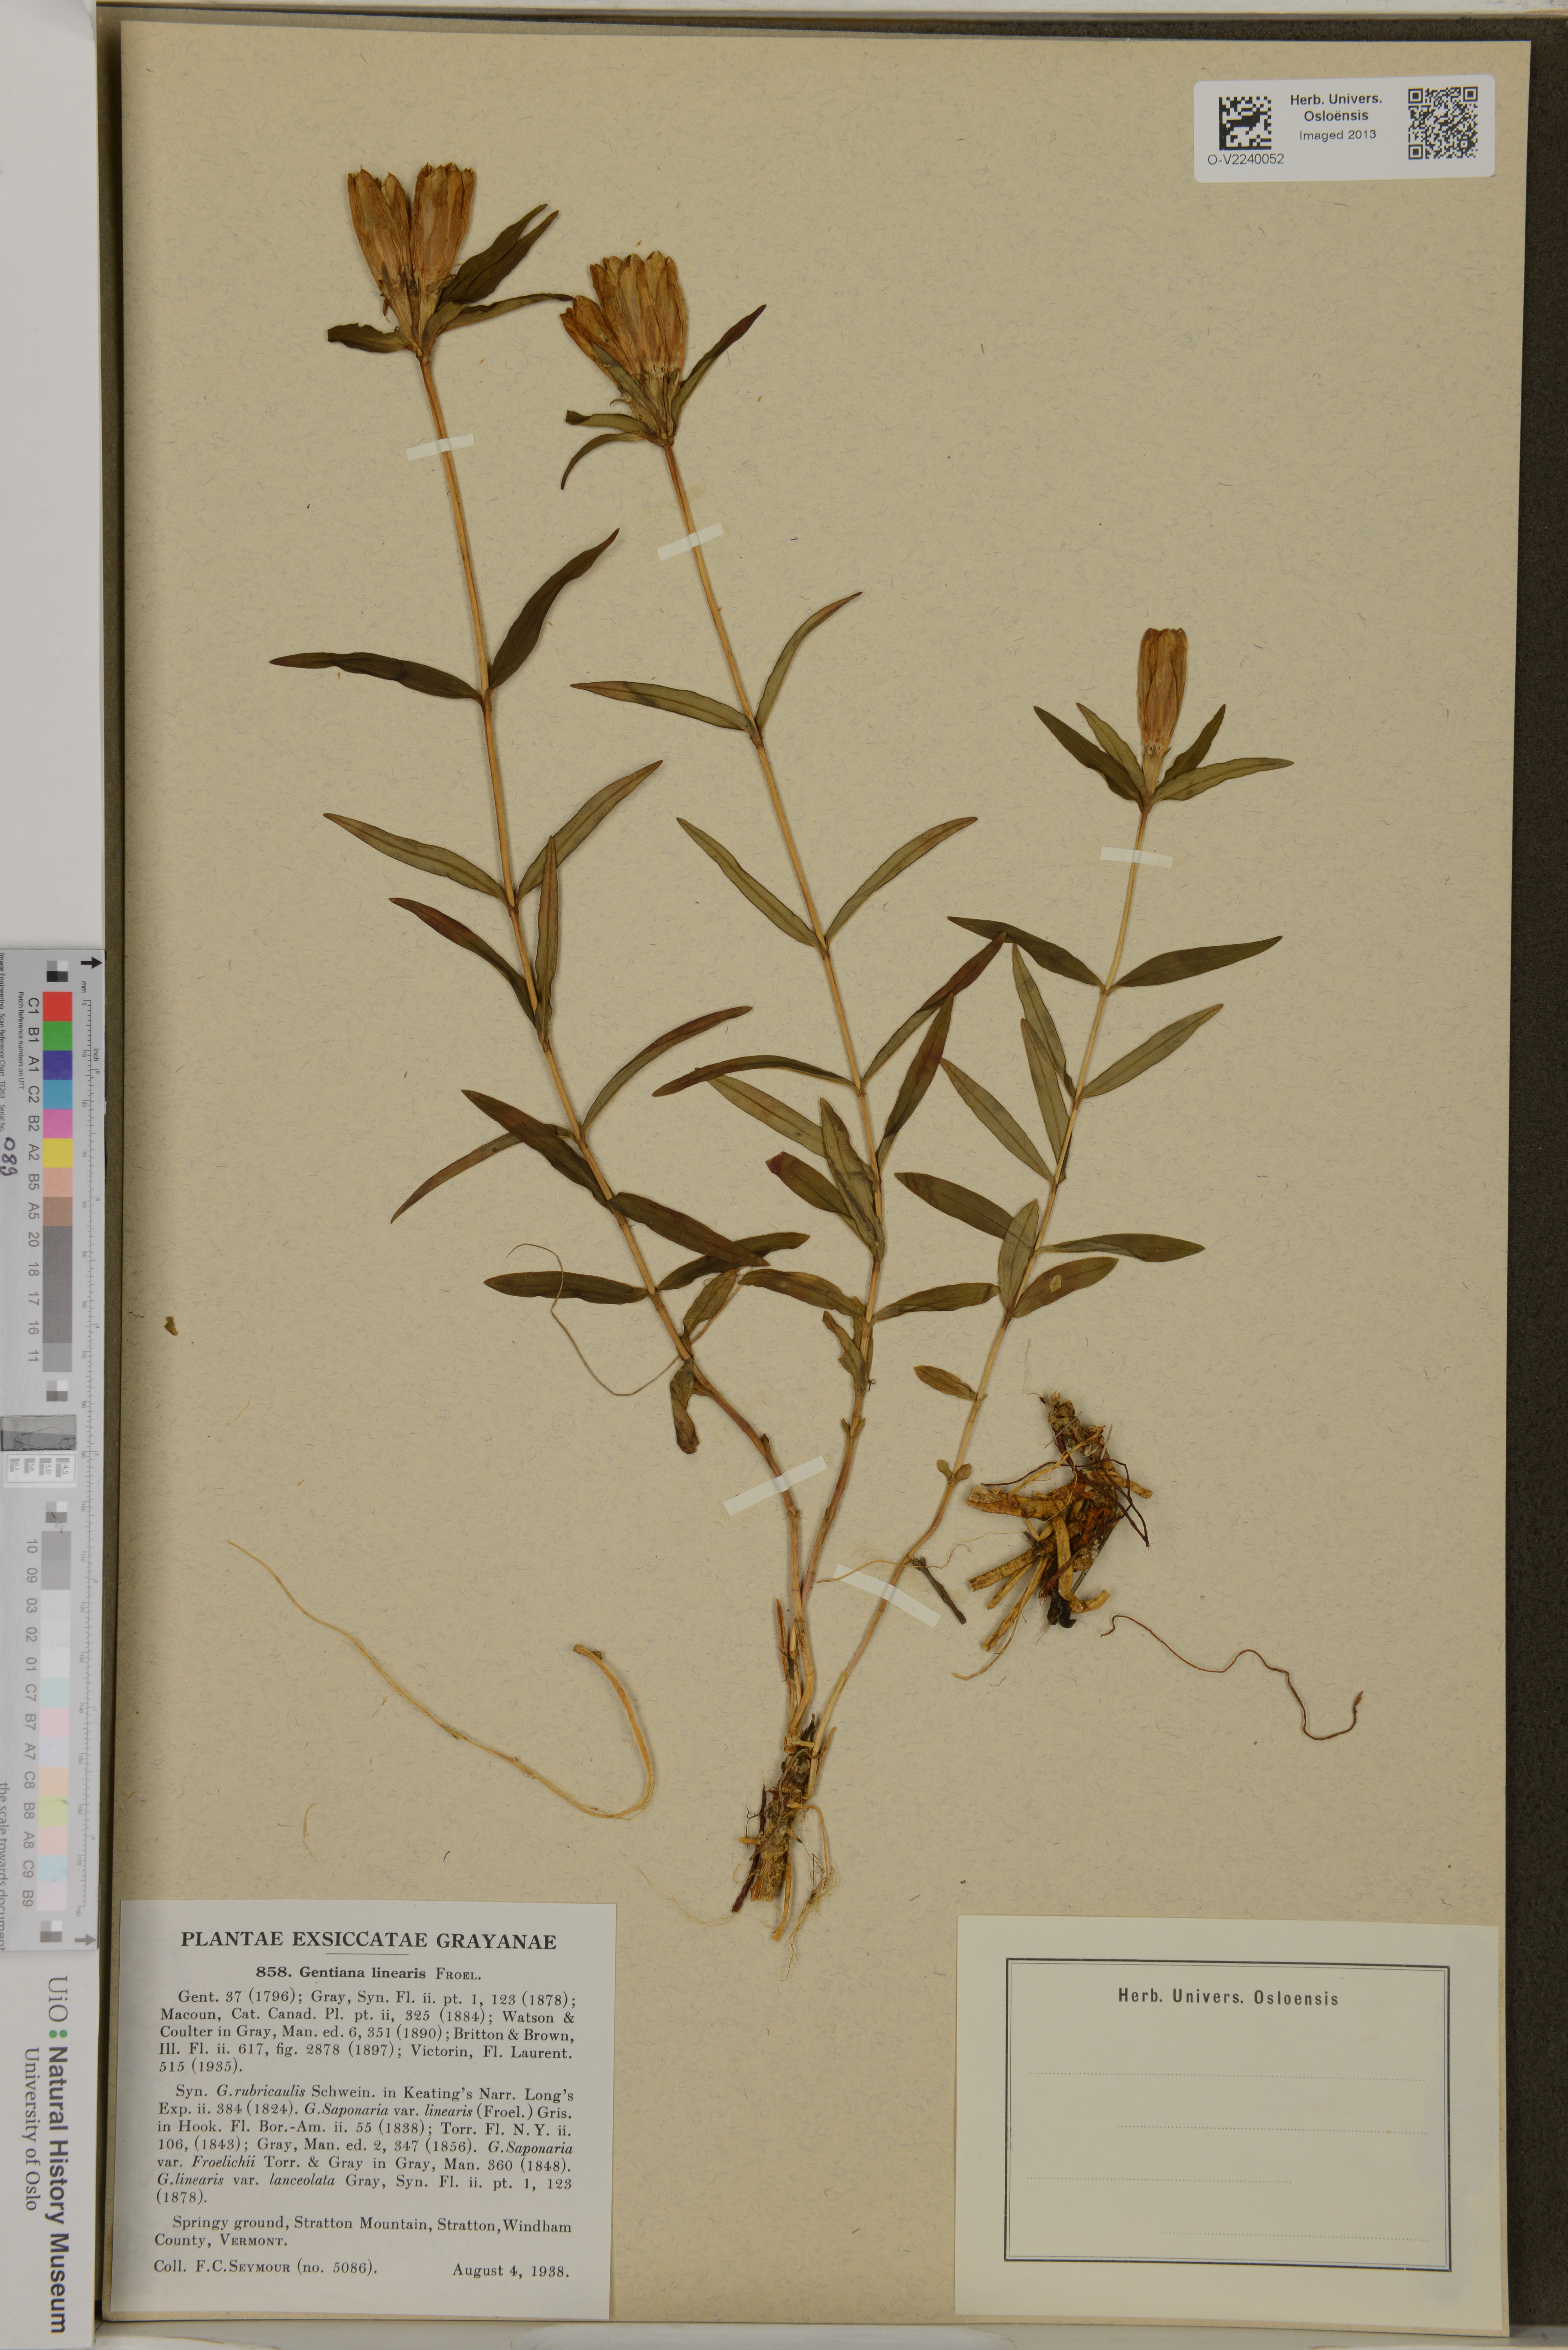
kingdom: Plantae
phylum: Tracheophyta
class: Magnoliopsida
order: Gentianales
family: Gentianaceae
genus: Gentiana
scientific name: Gentiana linearis
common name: Bastard gentian
